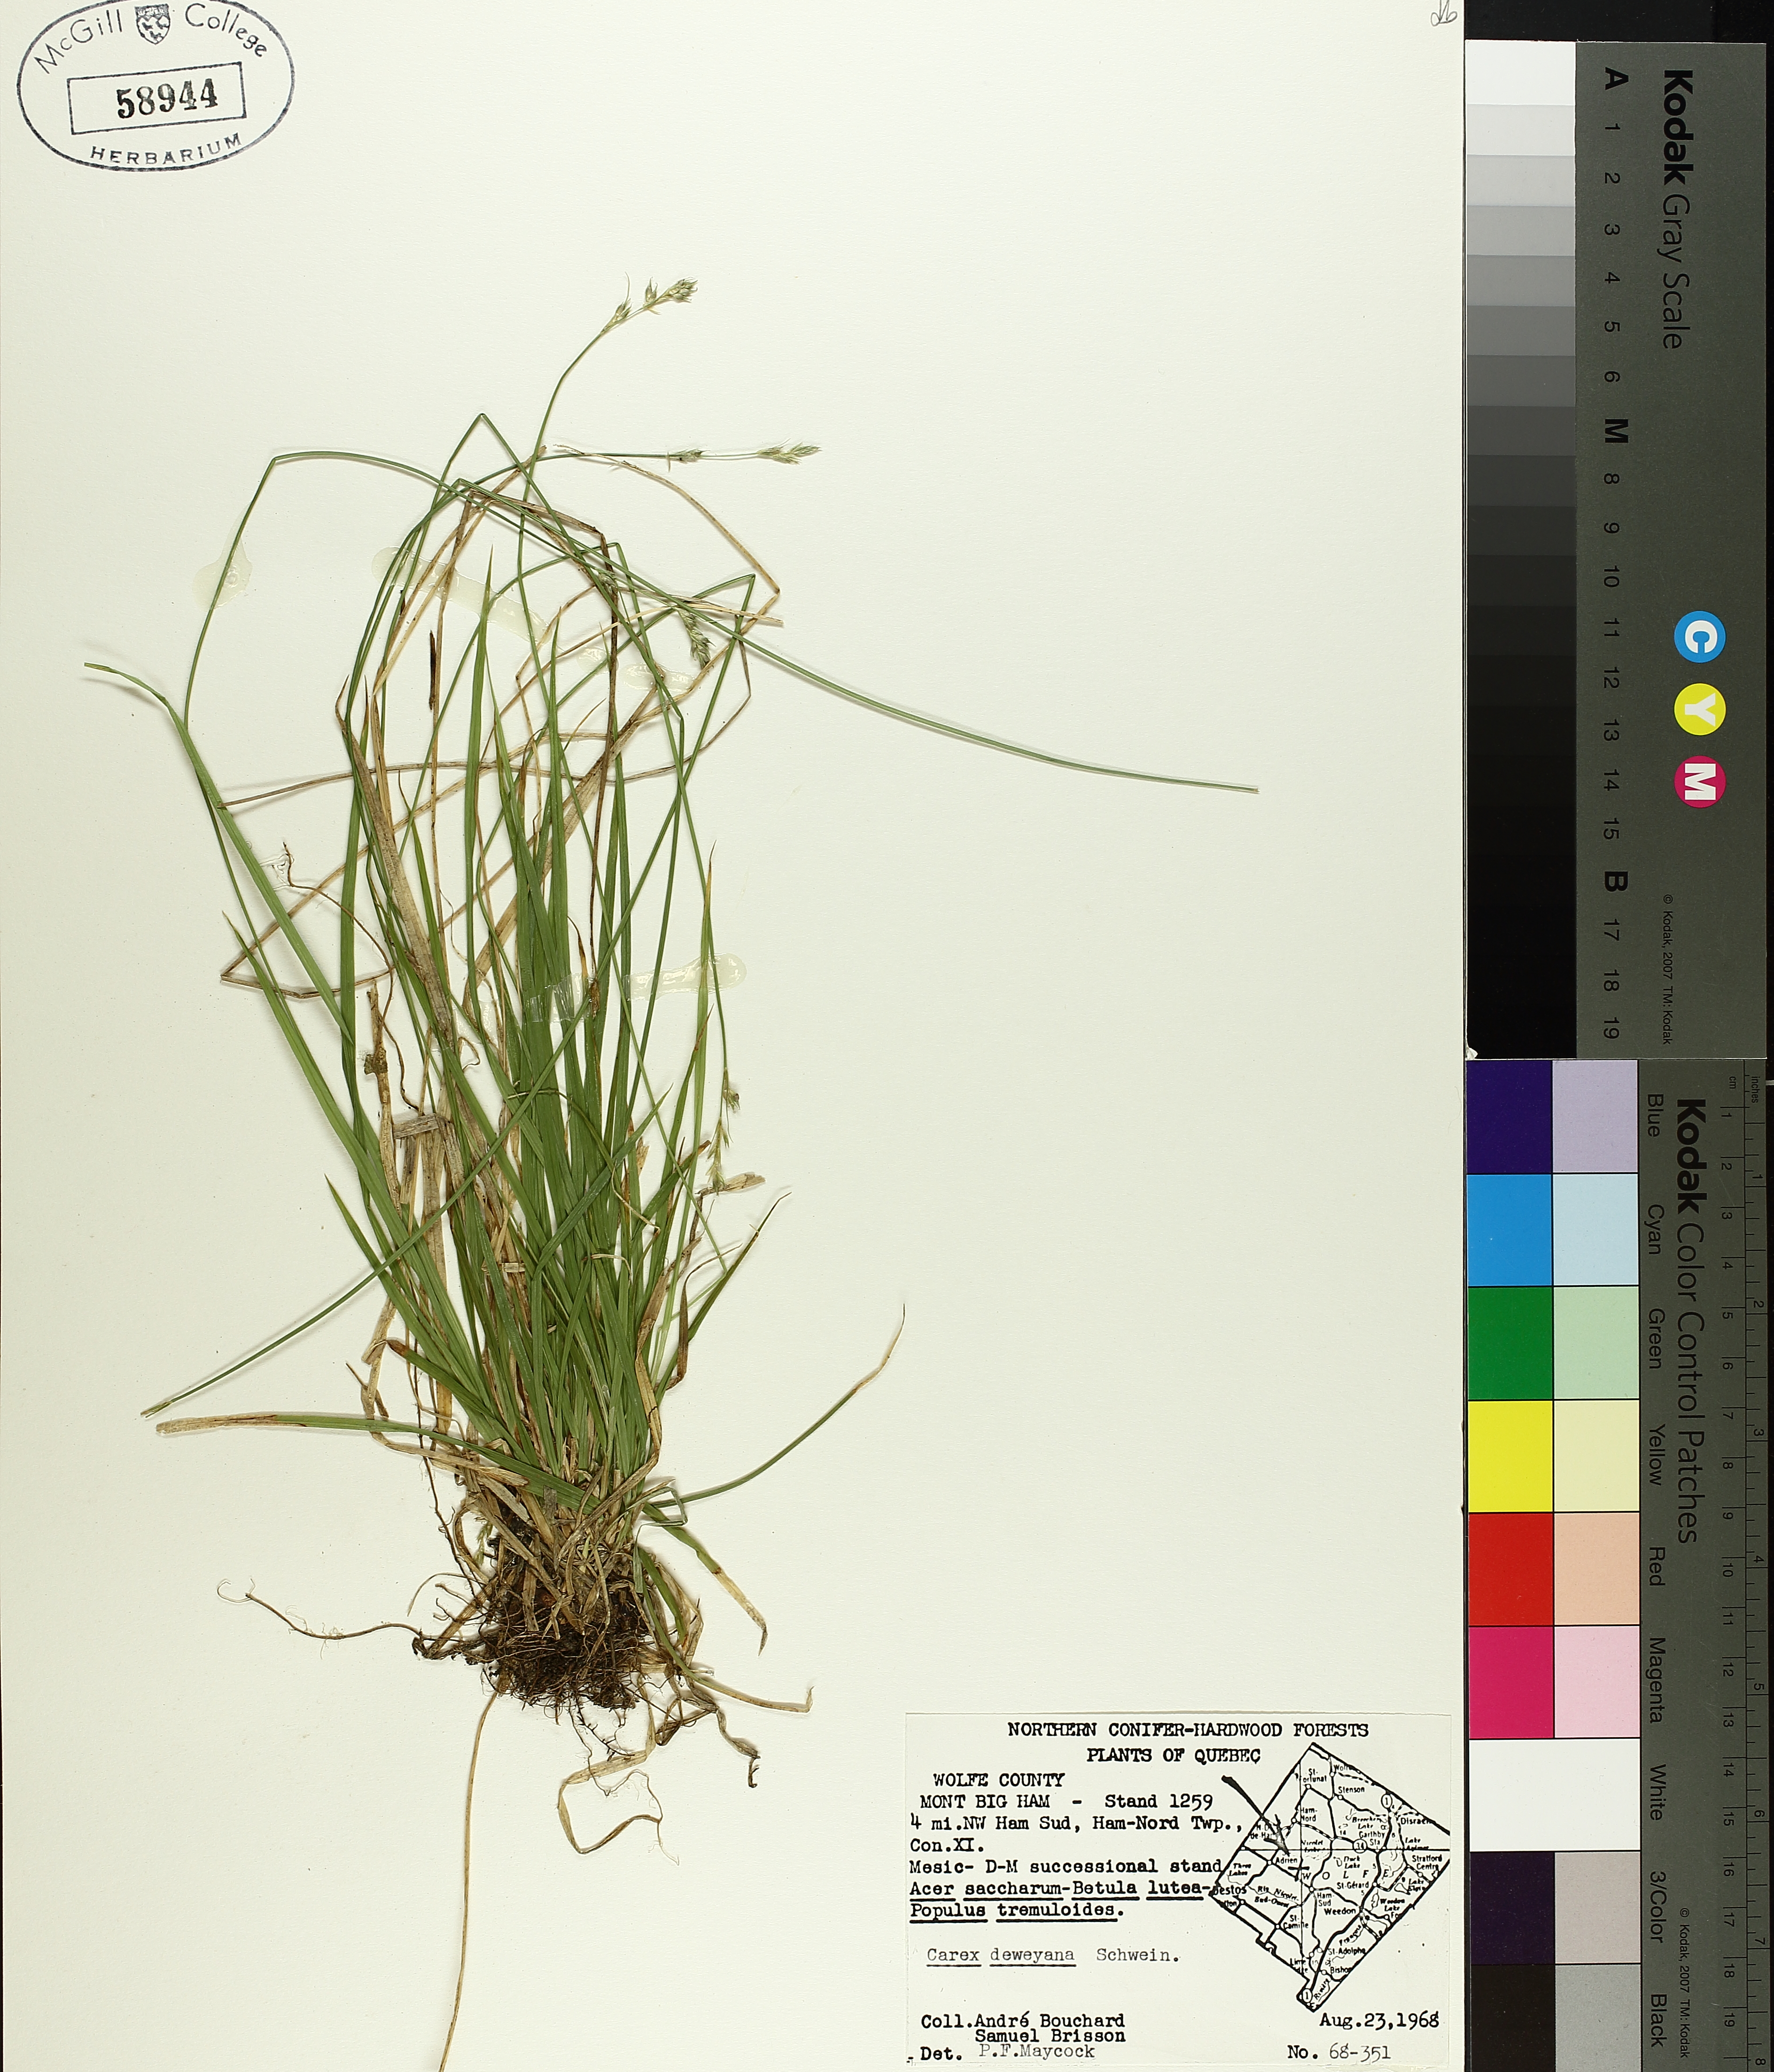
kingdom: Plantae
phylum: Tracheophyta
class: Liliopsida
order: Poales
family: Cyperaceae
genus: Carex
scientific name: Carex deweyana
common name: Dewey's sedge
